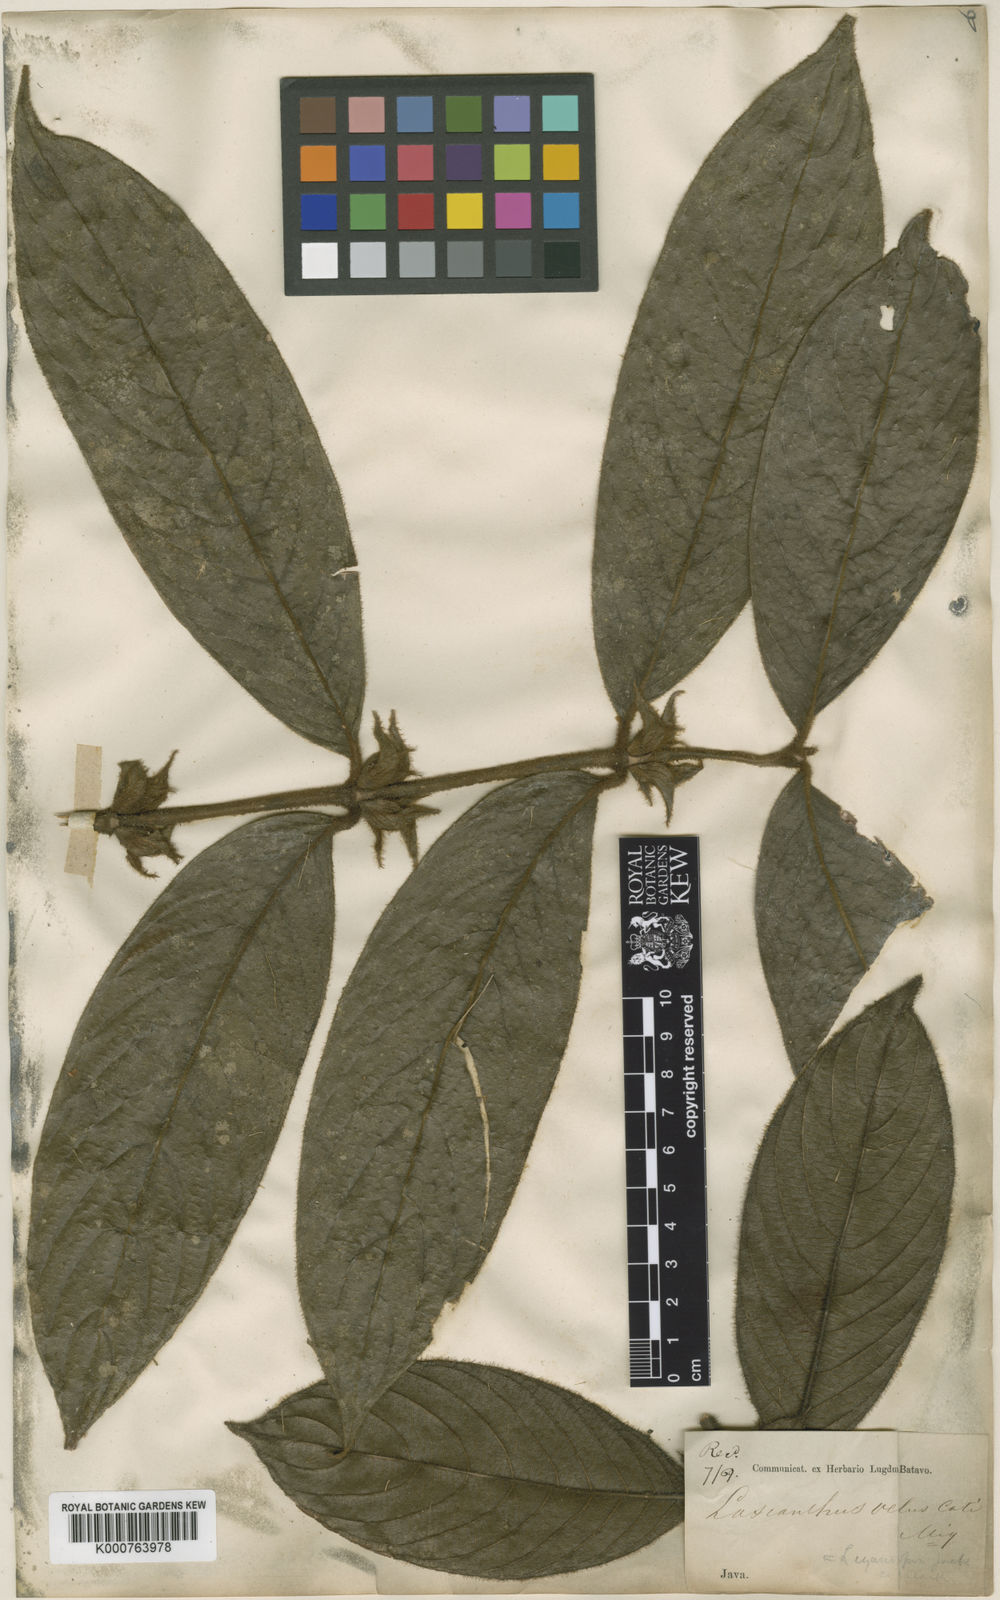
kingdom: Plantae
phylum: Tracheophyta
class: Magnoliopsida
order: Gentianales
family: Rubiaceae
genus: Lasianthus
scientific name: Lasianthus hirsutus
